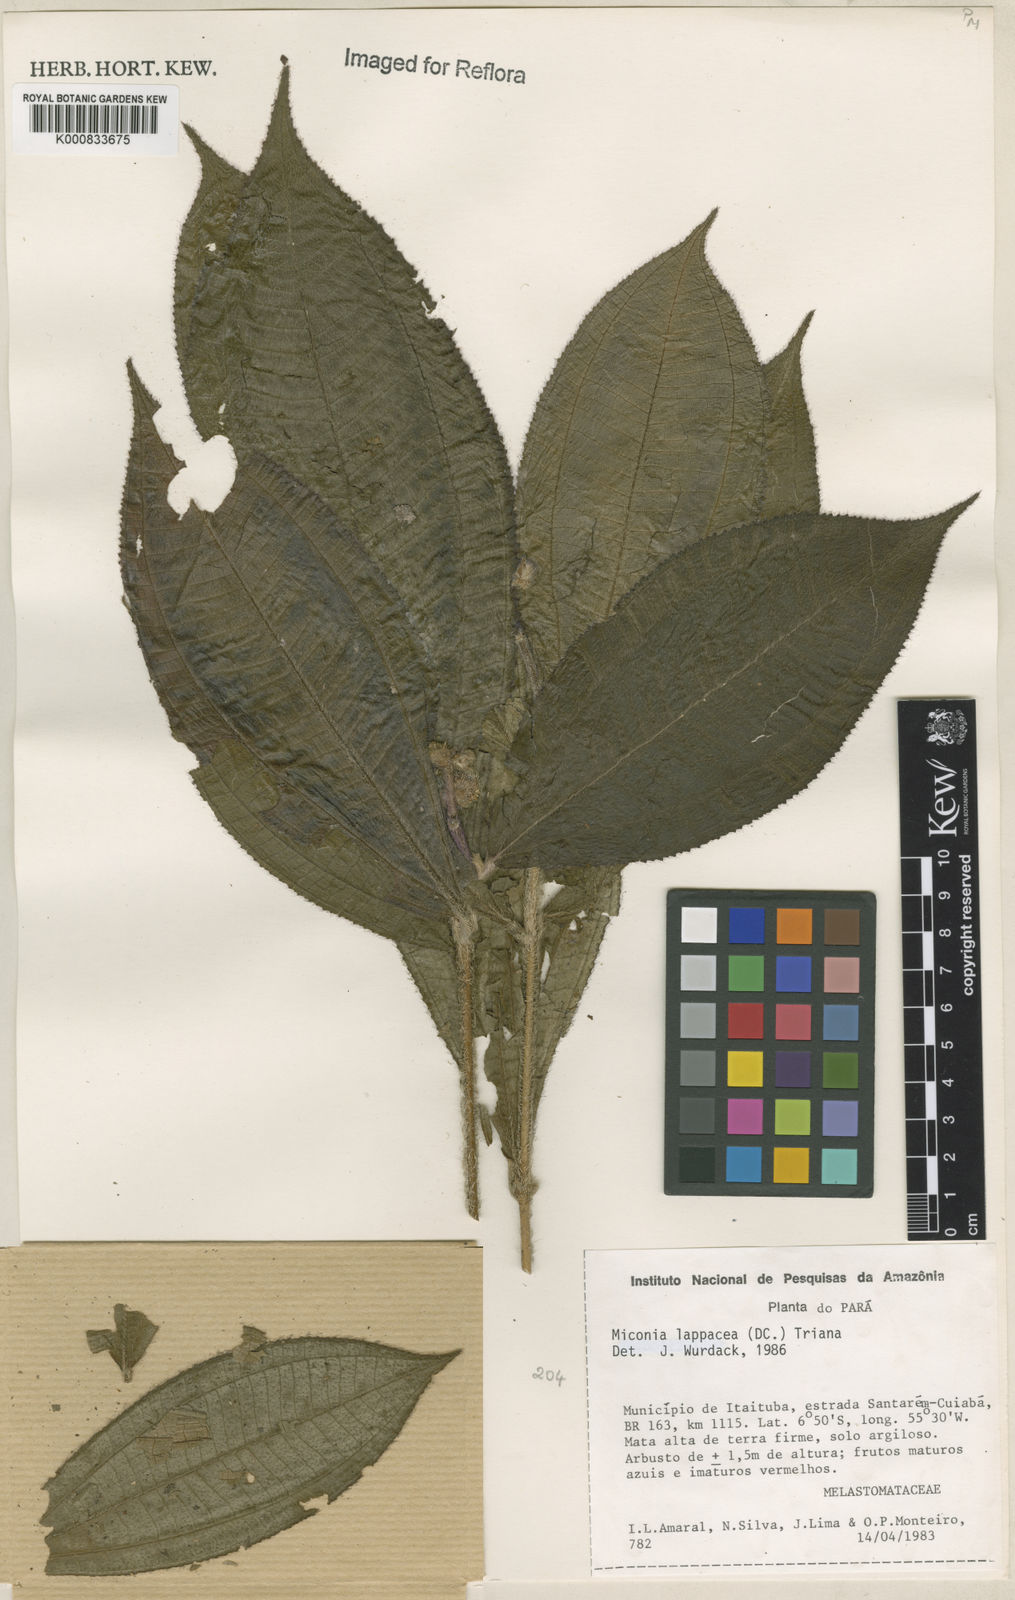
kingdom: Plantae
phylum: Tracheophyta
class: Magnoliopsida
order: Myrtales
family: Melastomataceae
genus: Miconia
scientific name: Miconia lappacea
